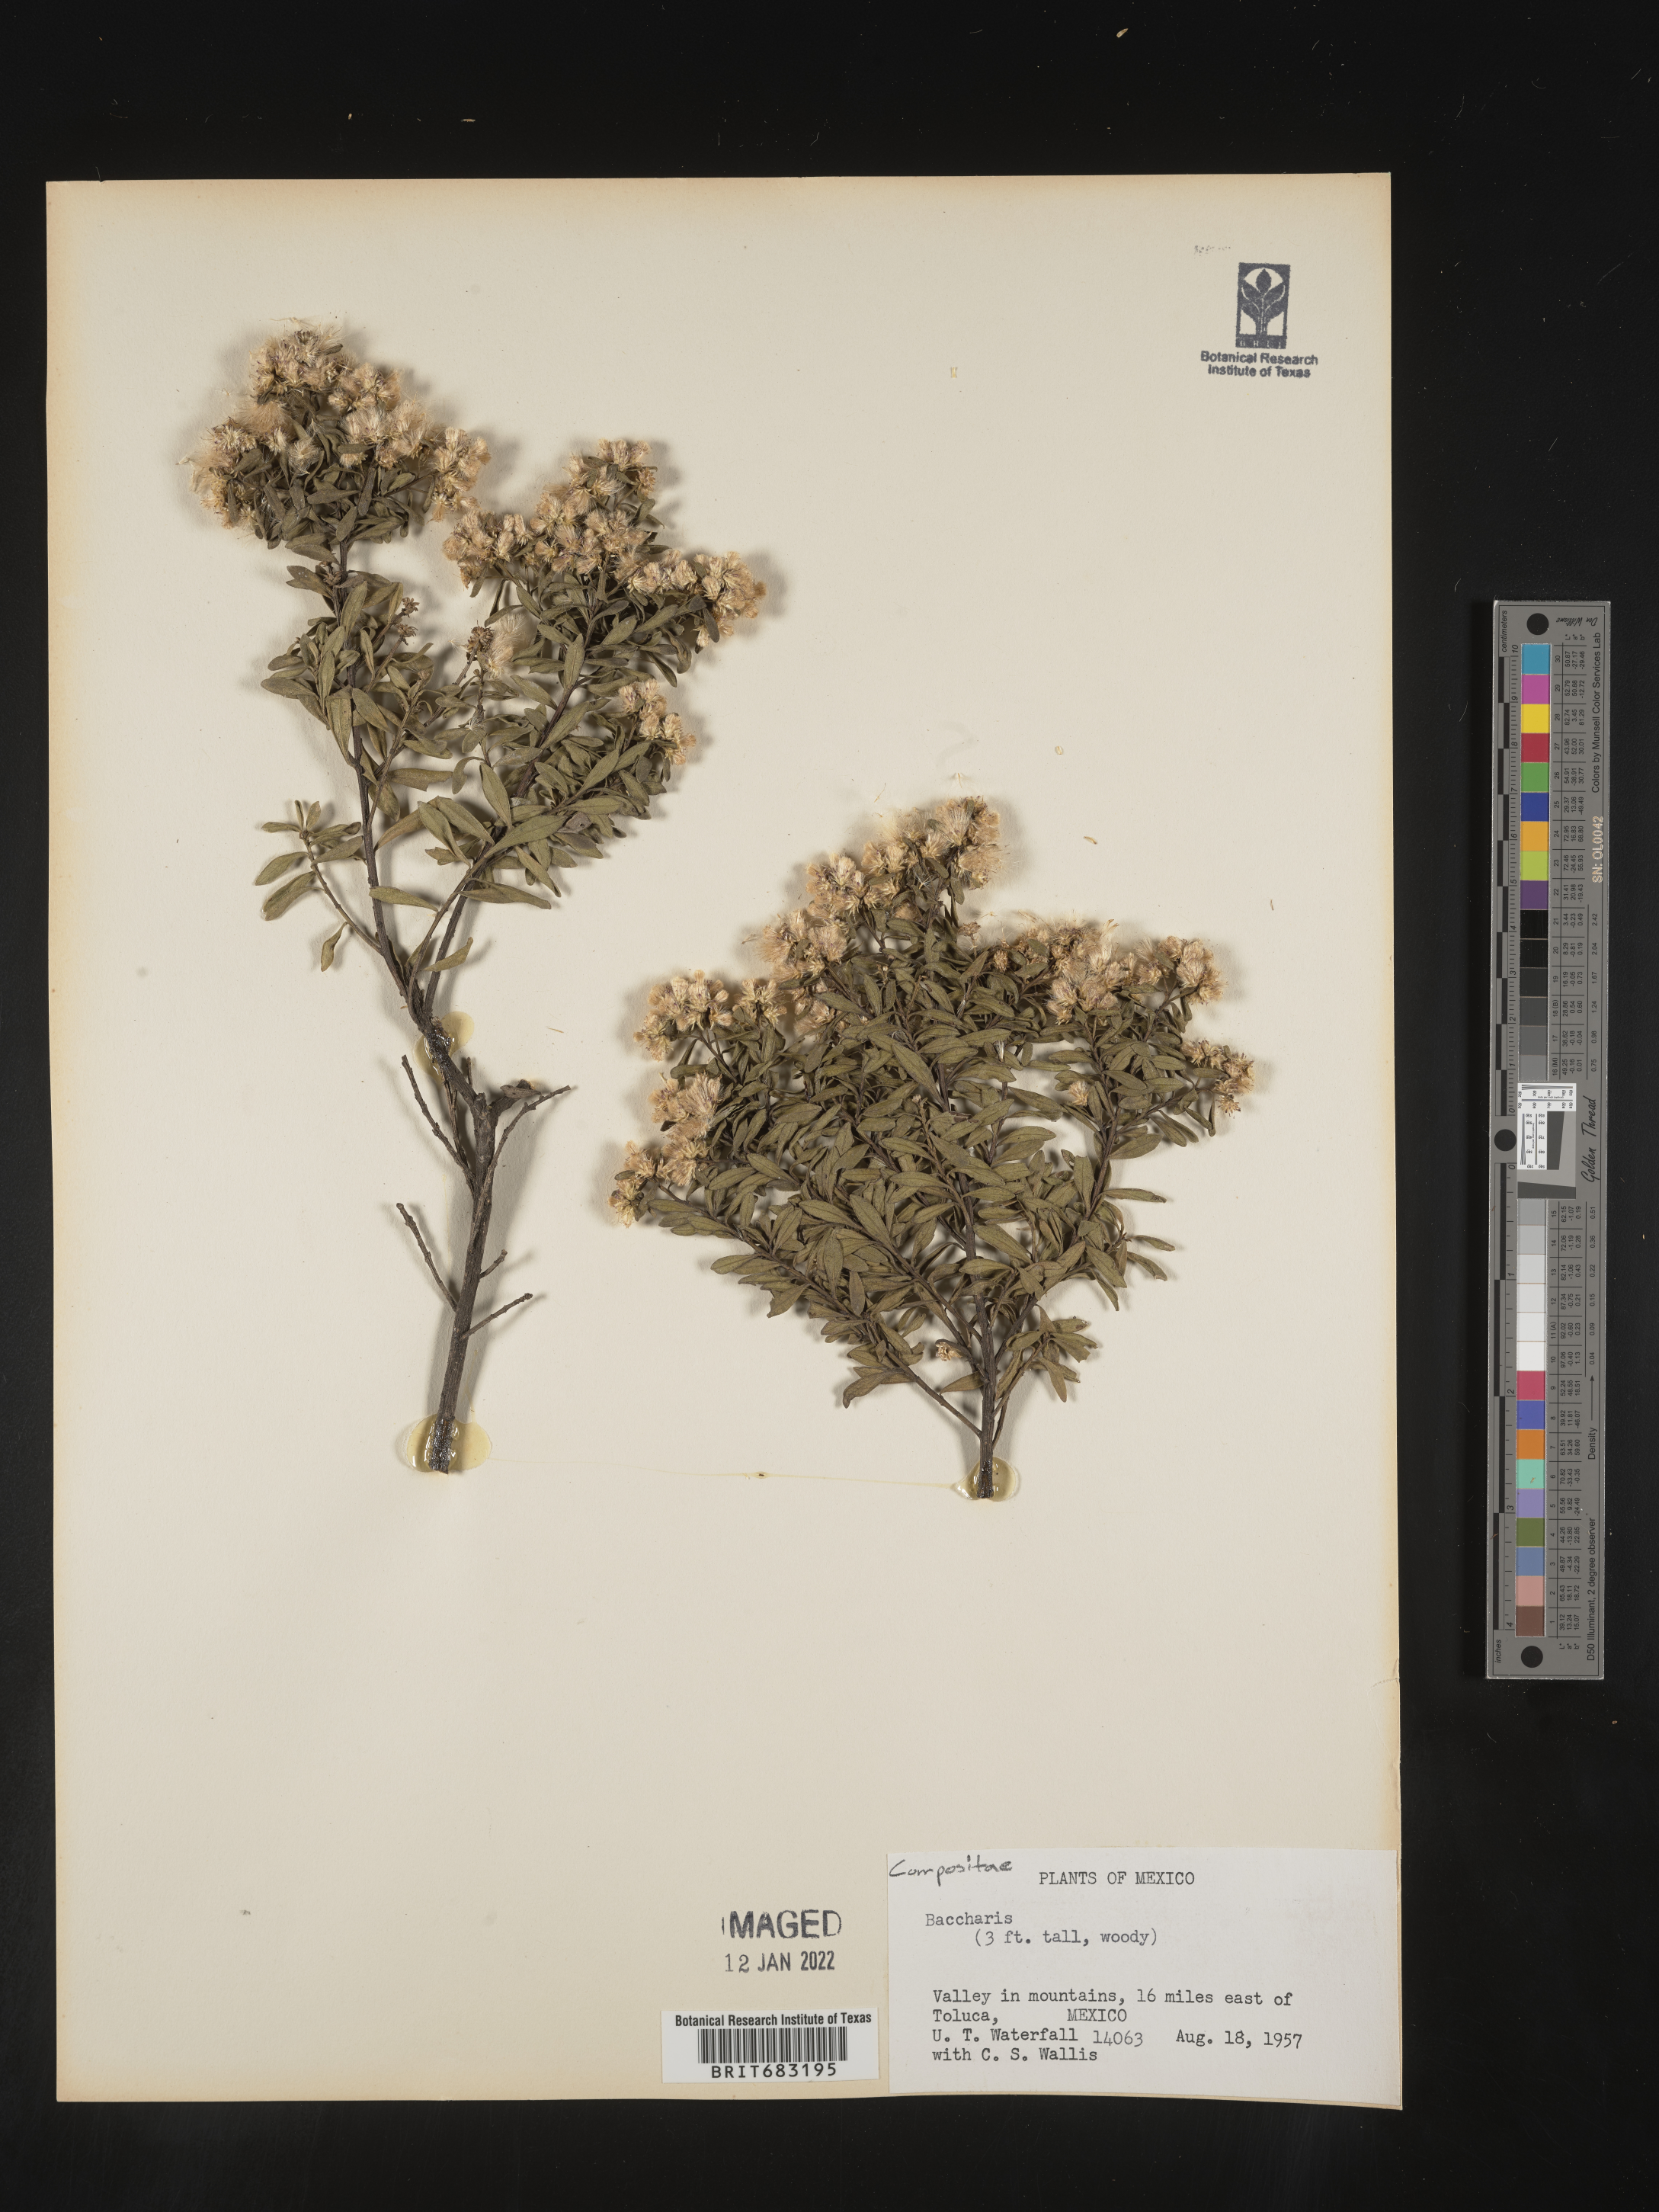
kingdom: Plantae
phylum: Tracheophyta
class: Magnoliopsida
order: Asterales
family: Asteraceae
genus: Baccharis
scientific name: Baccharis
